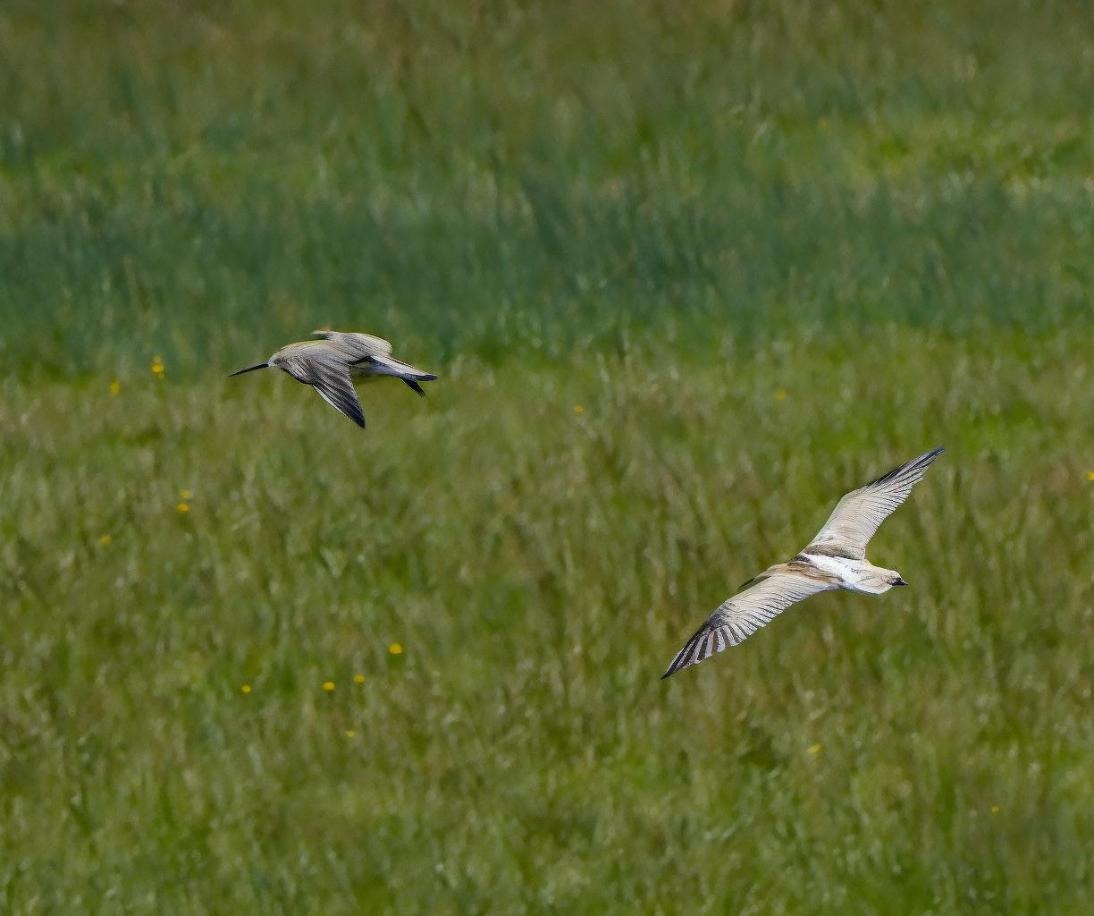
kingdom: Animalia
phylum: Chordata
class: Aves
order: Charadriiformes
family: Scolopacidae
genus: Numenius
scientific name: Numenius arquata
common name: Storspove
